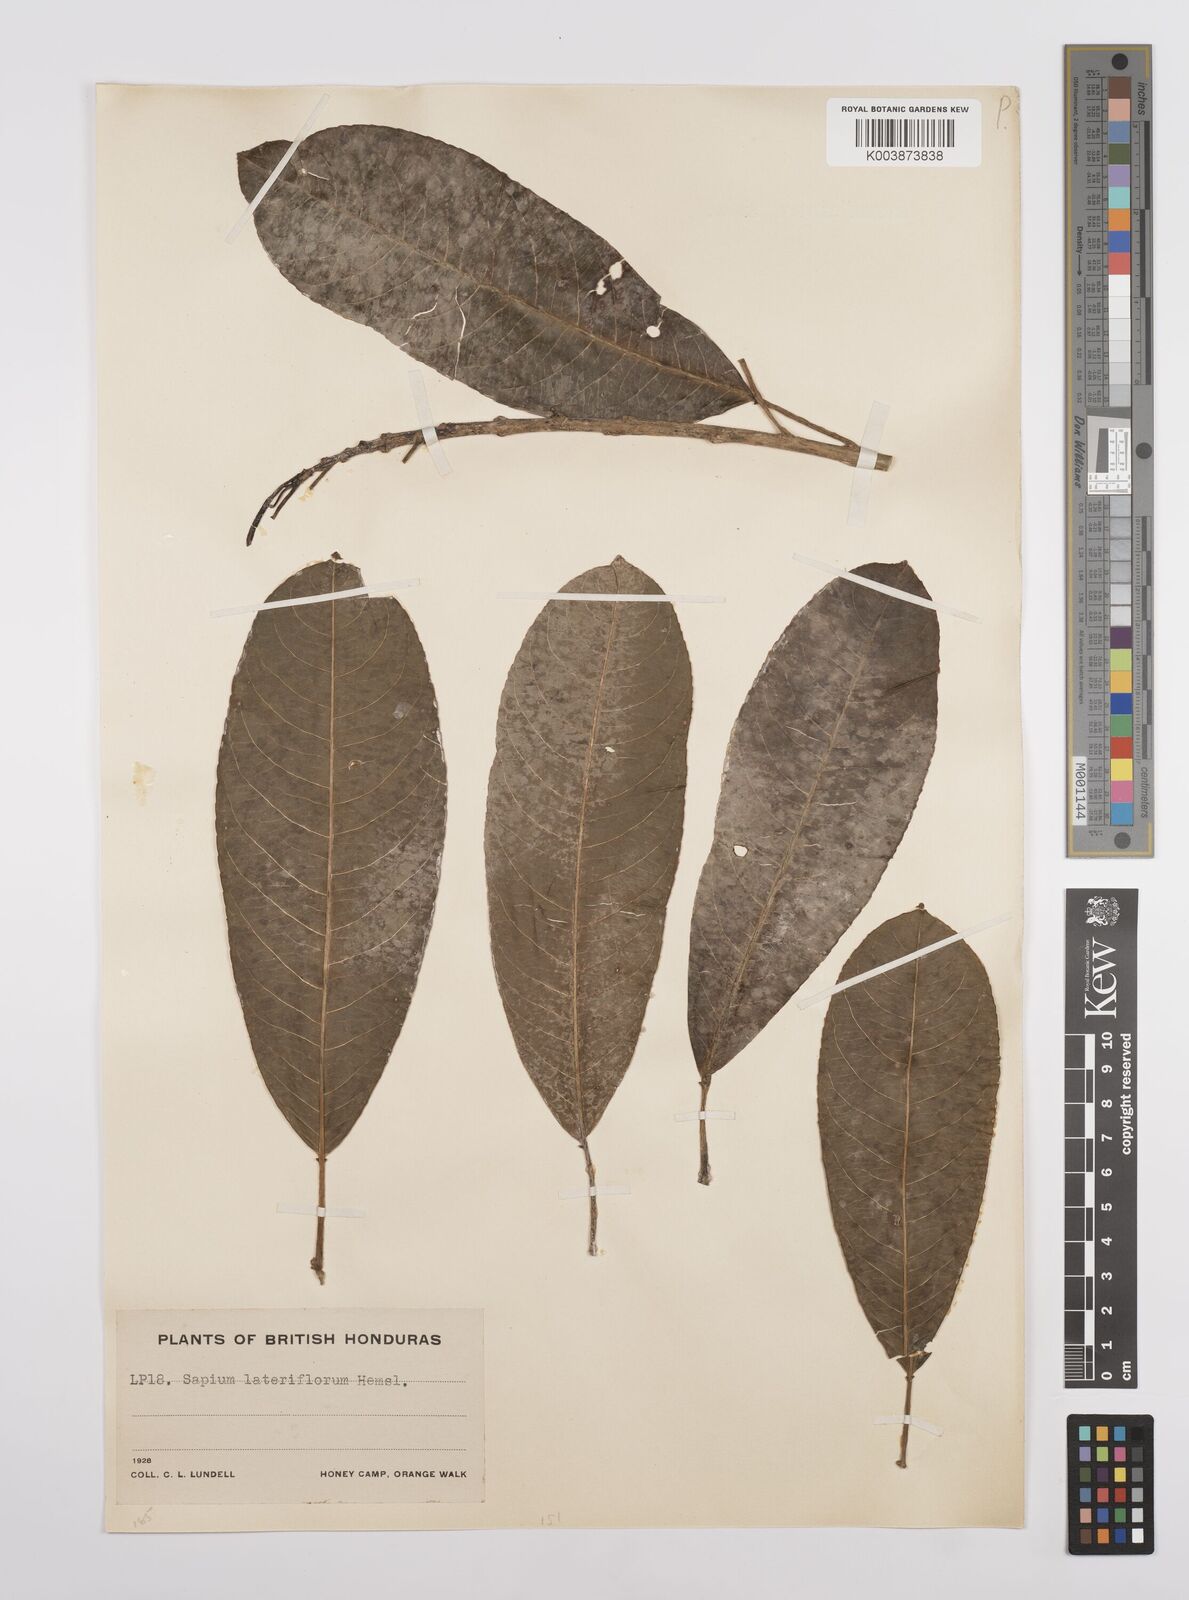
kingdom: Plantae
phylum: Tracheophyta
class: Magnoliopsida
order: Malpighiales
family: Euphorbiaceae
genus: Sapium
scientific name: Sapium lateriflorum
